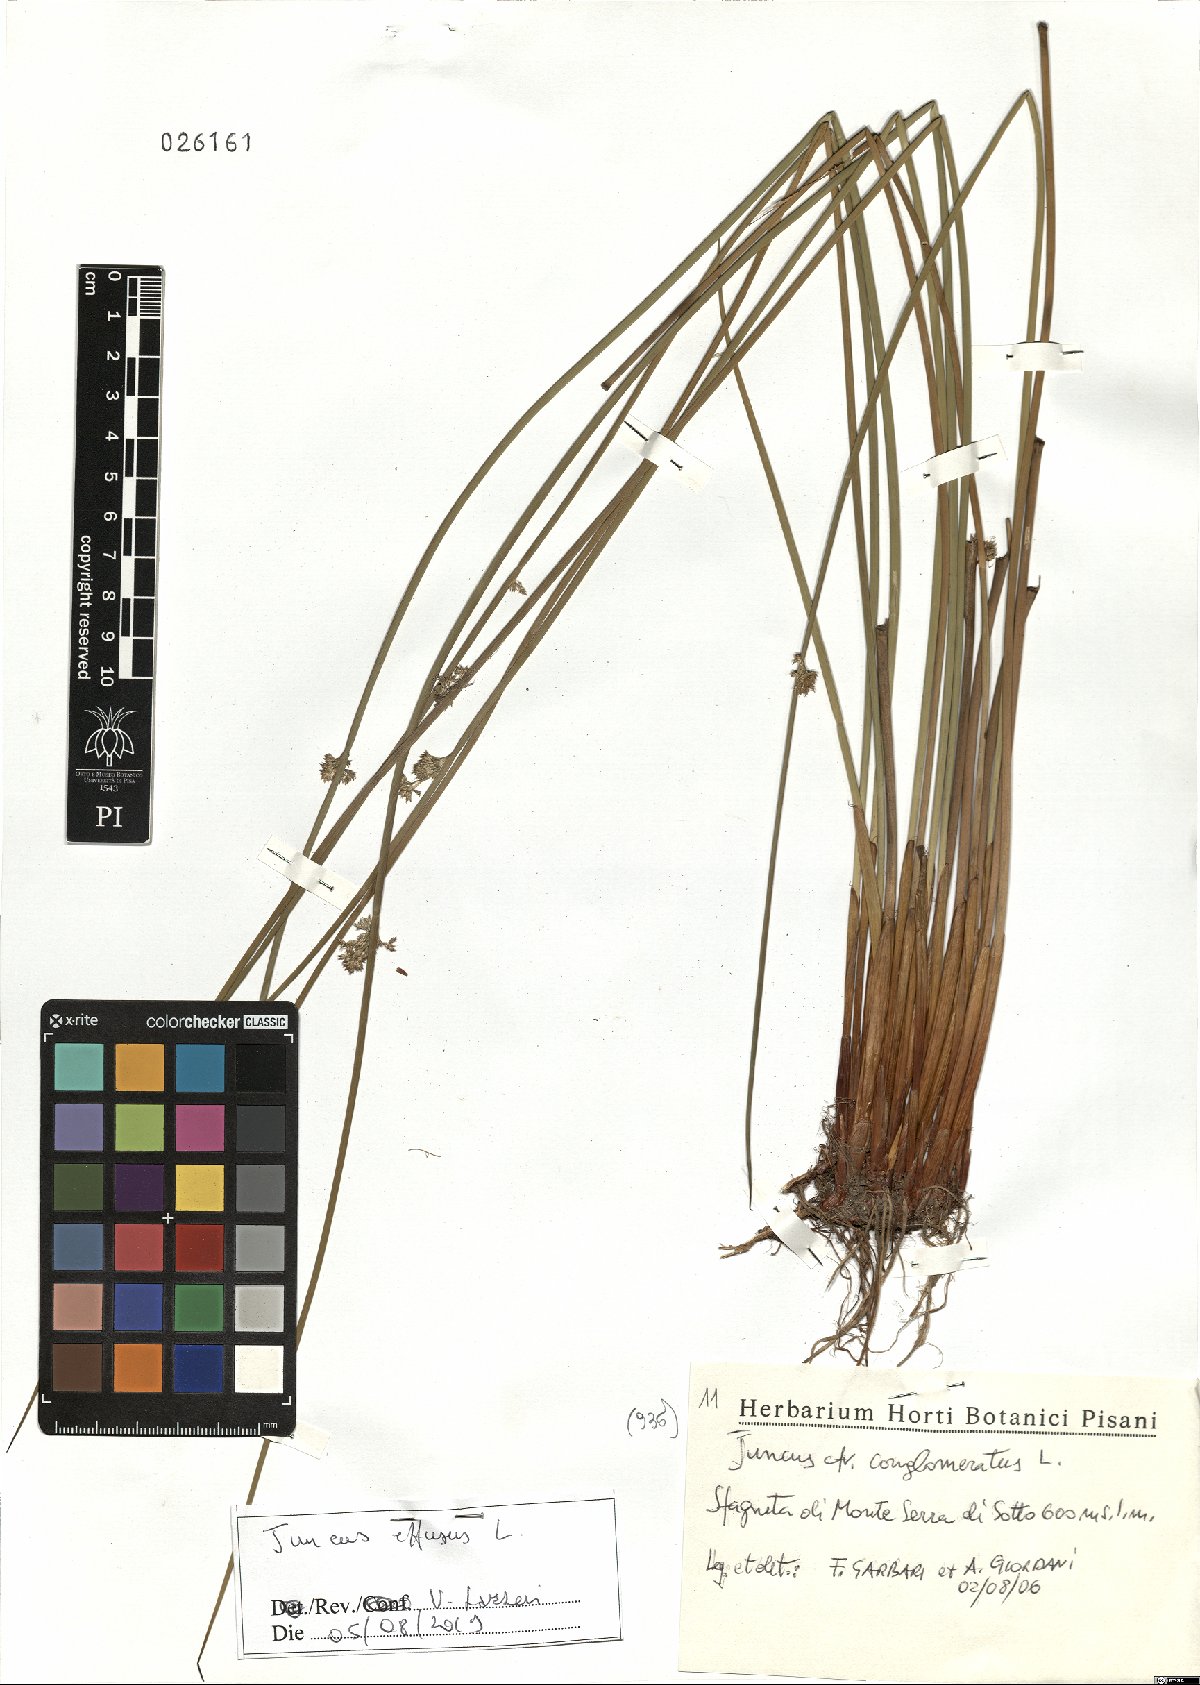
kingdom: Plantae
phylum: Tracheophyta
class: Liliopsida
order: Poales
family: Juncaceae
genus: Juncus
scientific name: Juncus effusus
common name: Soft rush
